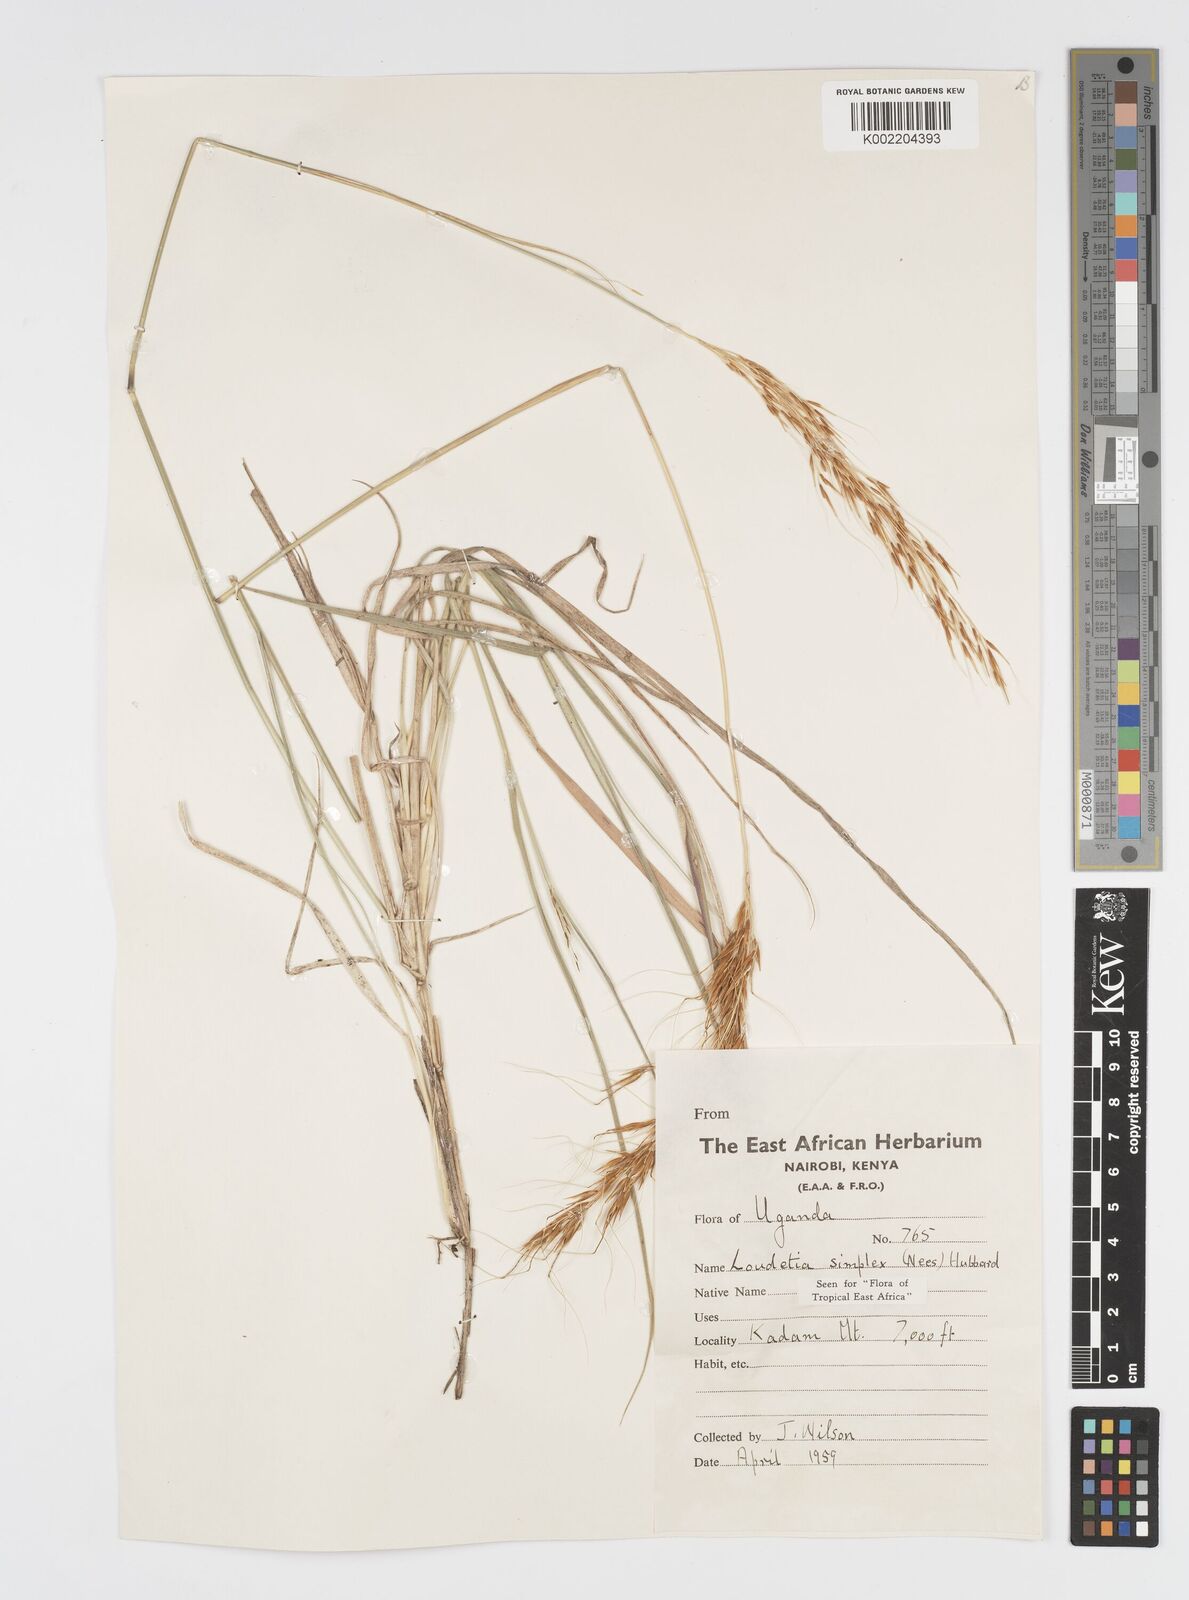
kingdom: Plantae
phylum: Tracheophyta
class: Liliopsida
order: Poales
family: Poaceae
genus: Loudetia
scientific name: Loudetia simplex
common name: Common russet grass
